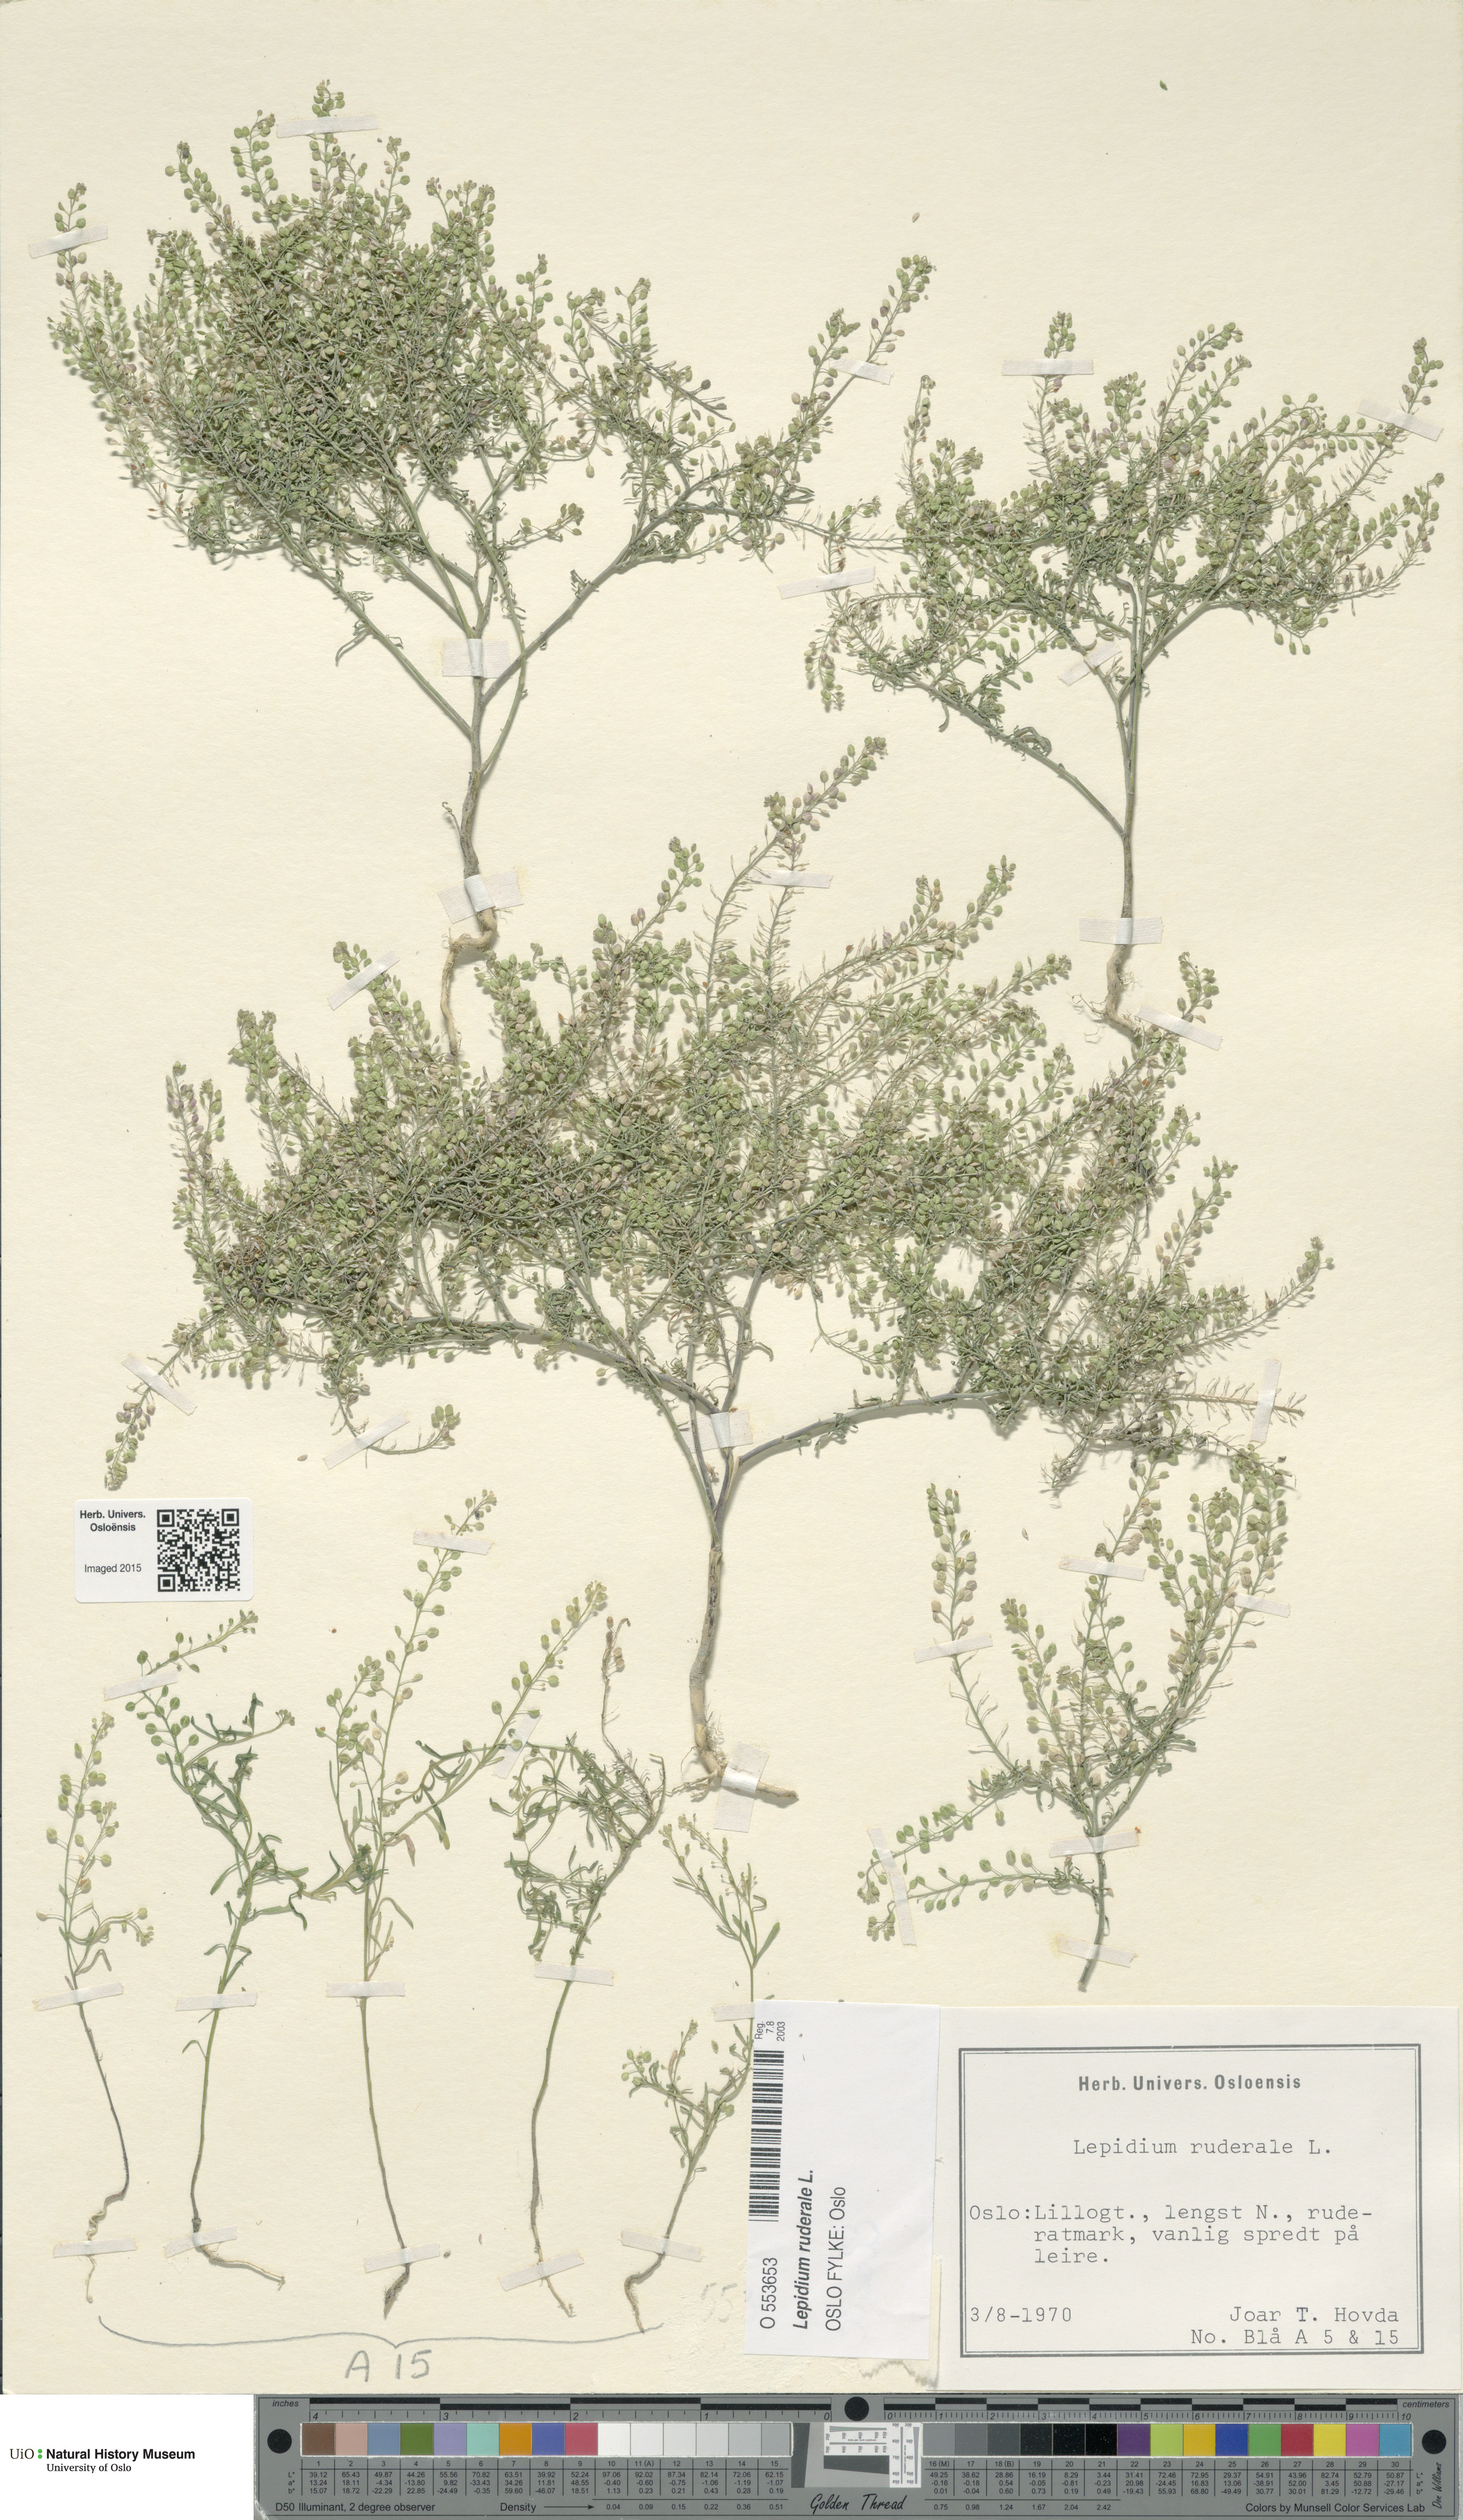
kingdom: Plantae
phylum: Tracheophyta
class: Magnoliopsida
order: Brassicales
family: Brassicaceae
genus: Lepidium
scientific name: Lepidium ruderale
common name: Narrow-leaved pepperwort
